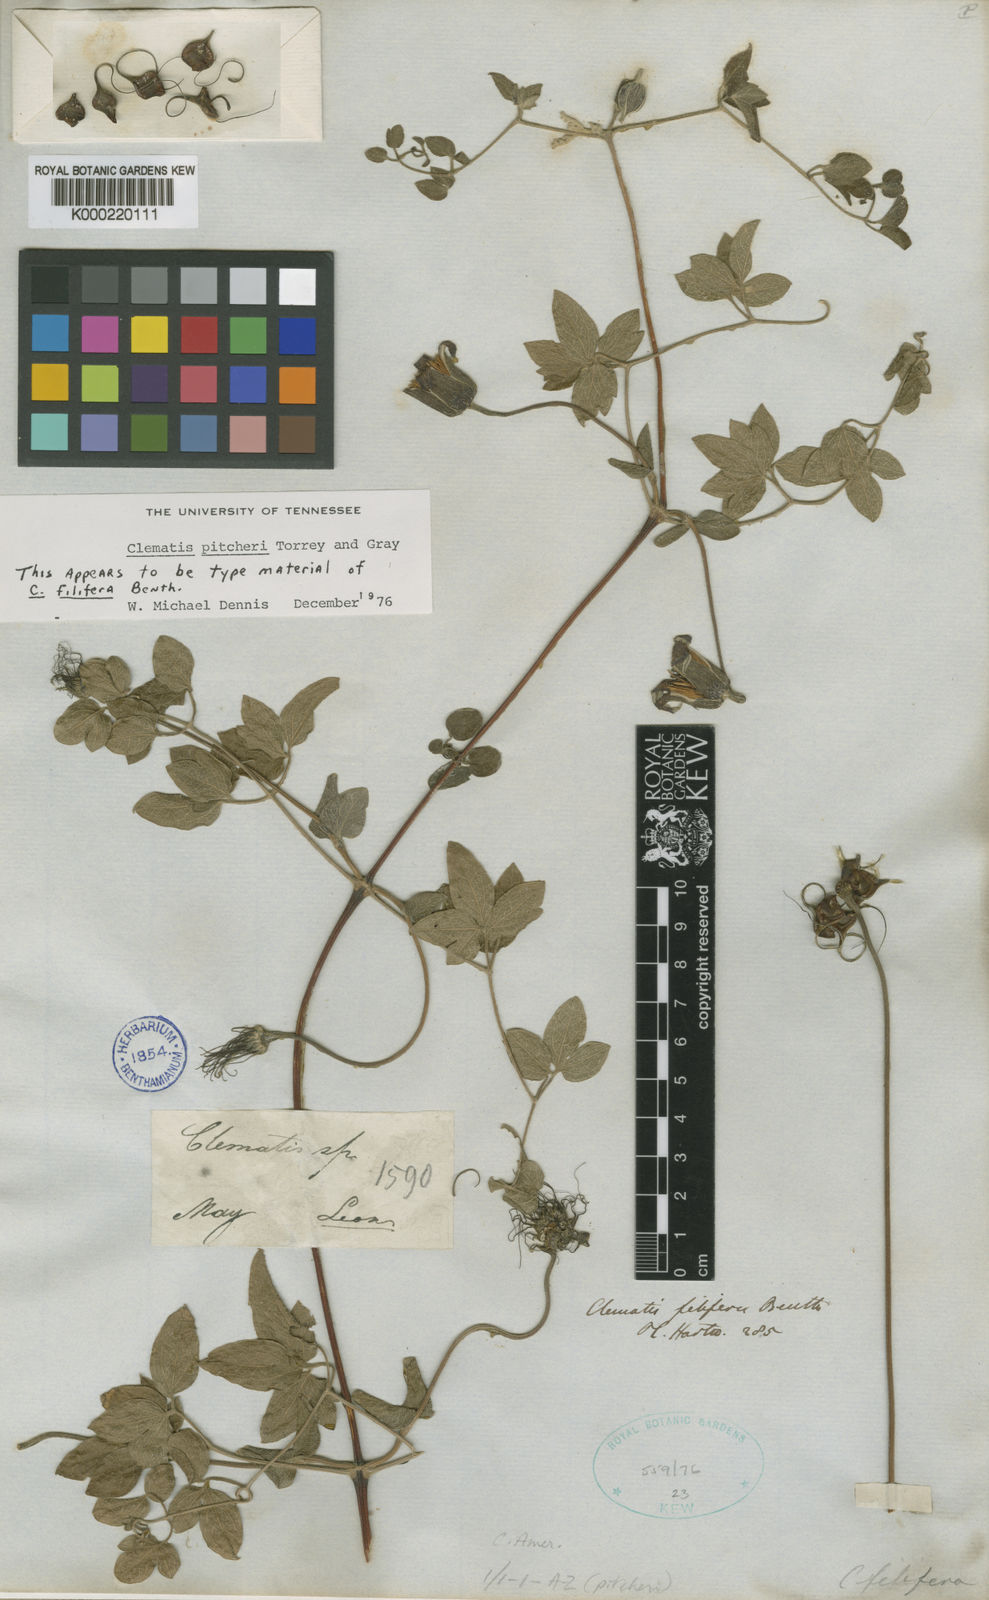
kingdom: Plantae
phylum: Tracheophyta
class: Magnoliopsida
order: Ranunculales
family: Ranunculaceae
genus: Clematis
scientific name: Clematis pitcheri
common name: Bellflower clematis
